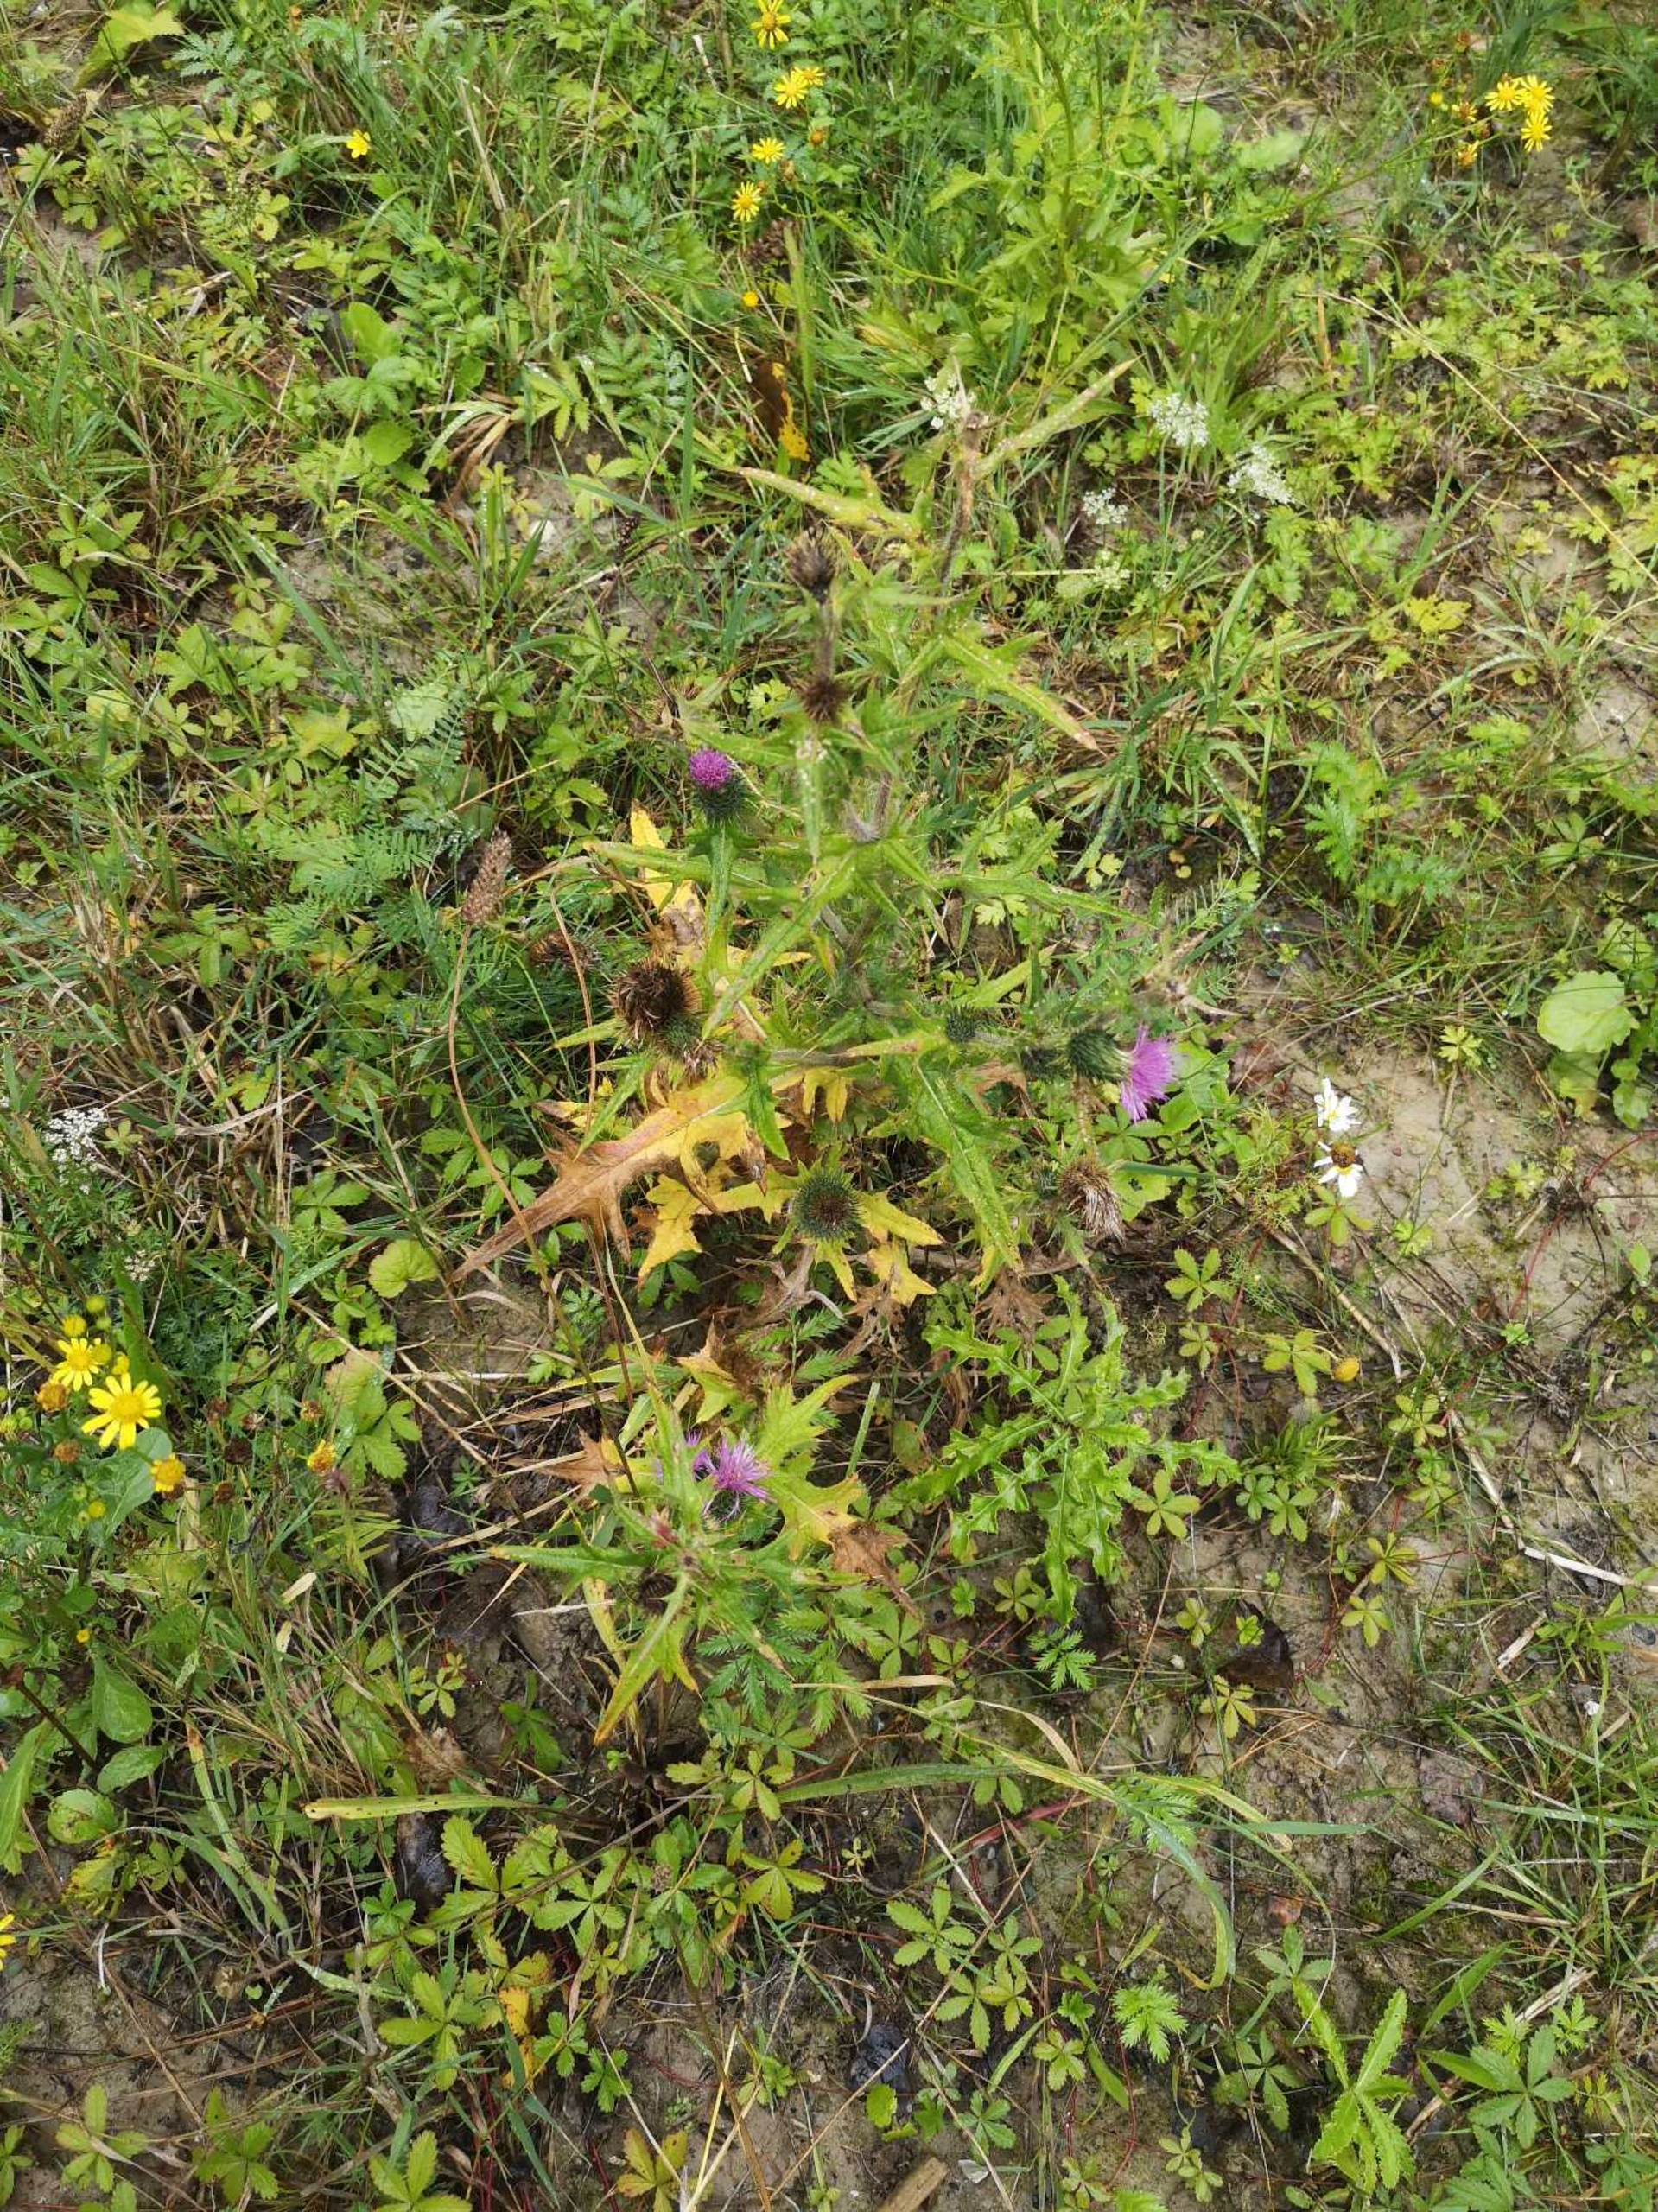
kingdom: Plantae
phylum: Tracheophyta
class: Magnoliopsida
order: Asterales
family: Asteraceae
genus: Cirsium
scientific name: Cirsium vulgare
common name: Horse-tidsel
